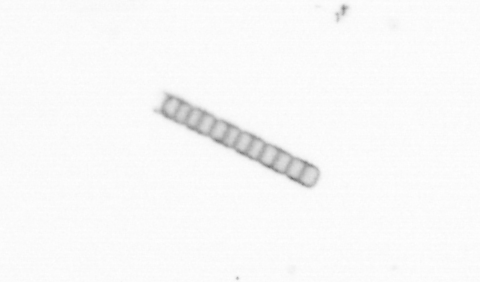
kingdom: Chromista
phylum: Ochrophyta
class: Bacillariophyceae
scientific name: Bacillariophyceae
